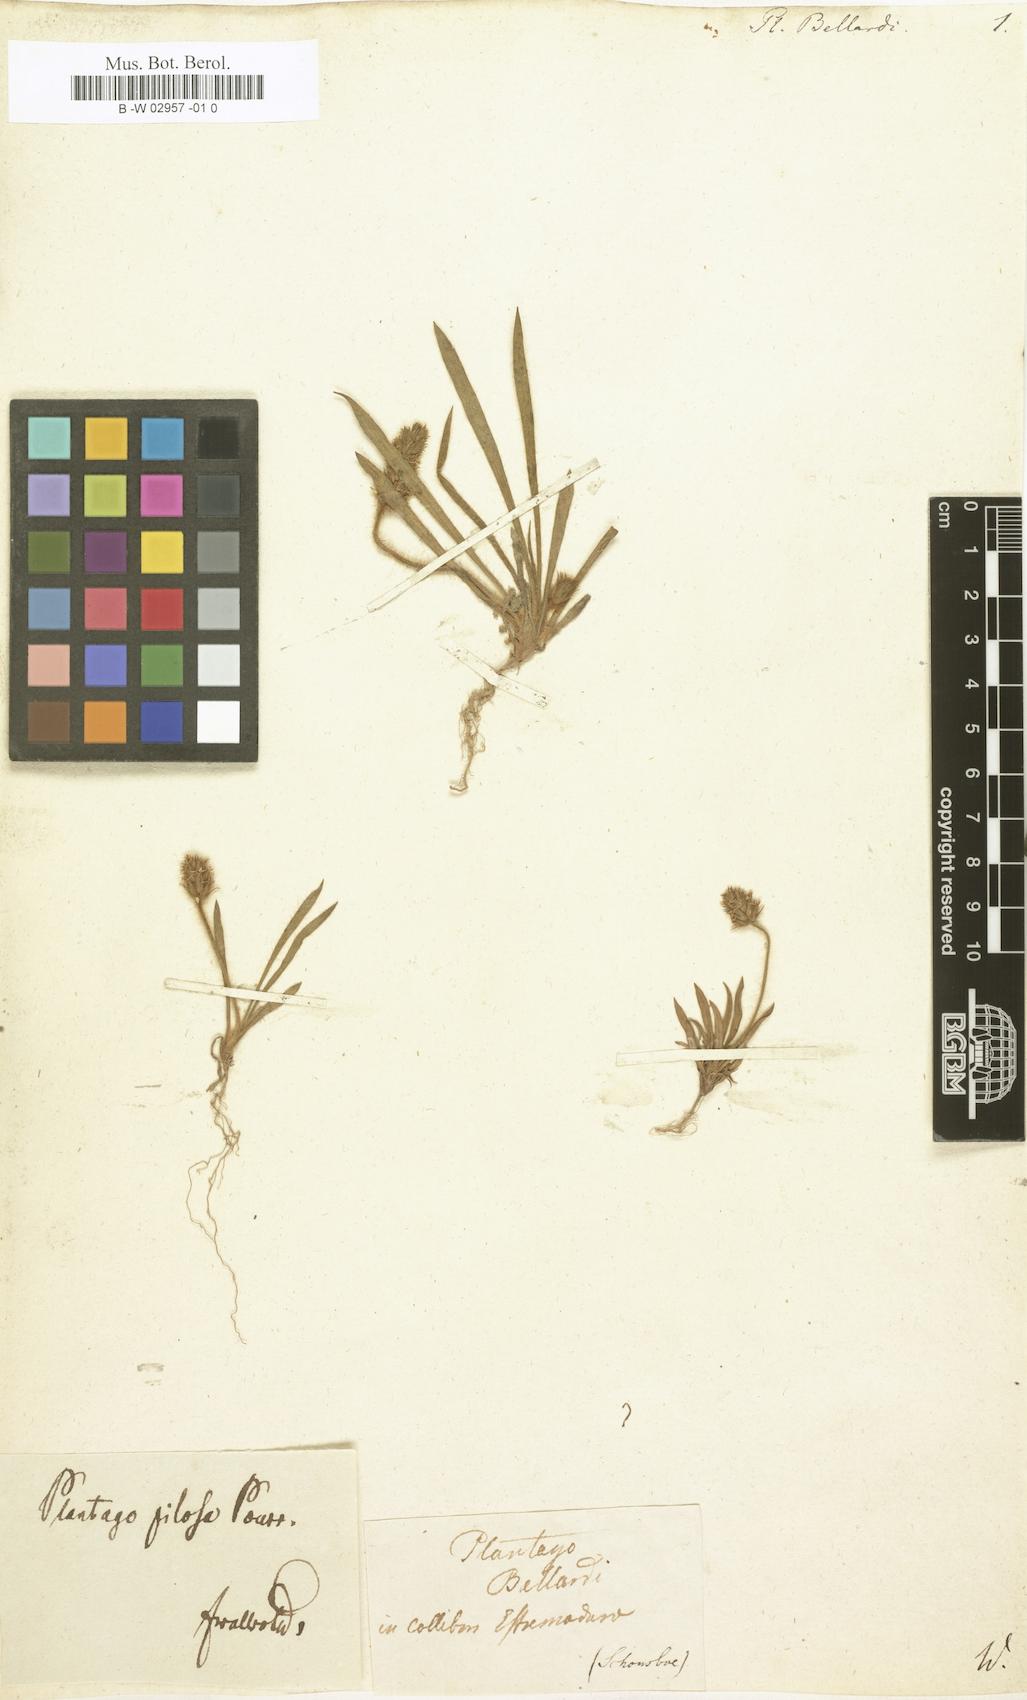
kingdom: Plantae
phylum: Tracheophyta
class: Magnoliopsida
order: Lamiales
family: Plantaginaceae
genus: Plantago
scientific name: Plantago bellardi
